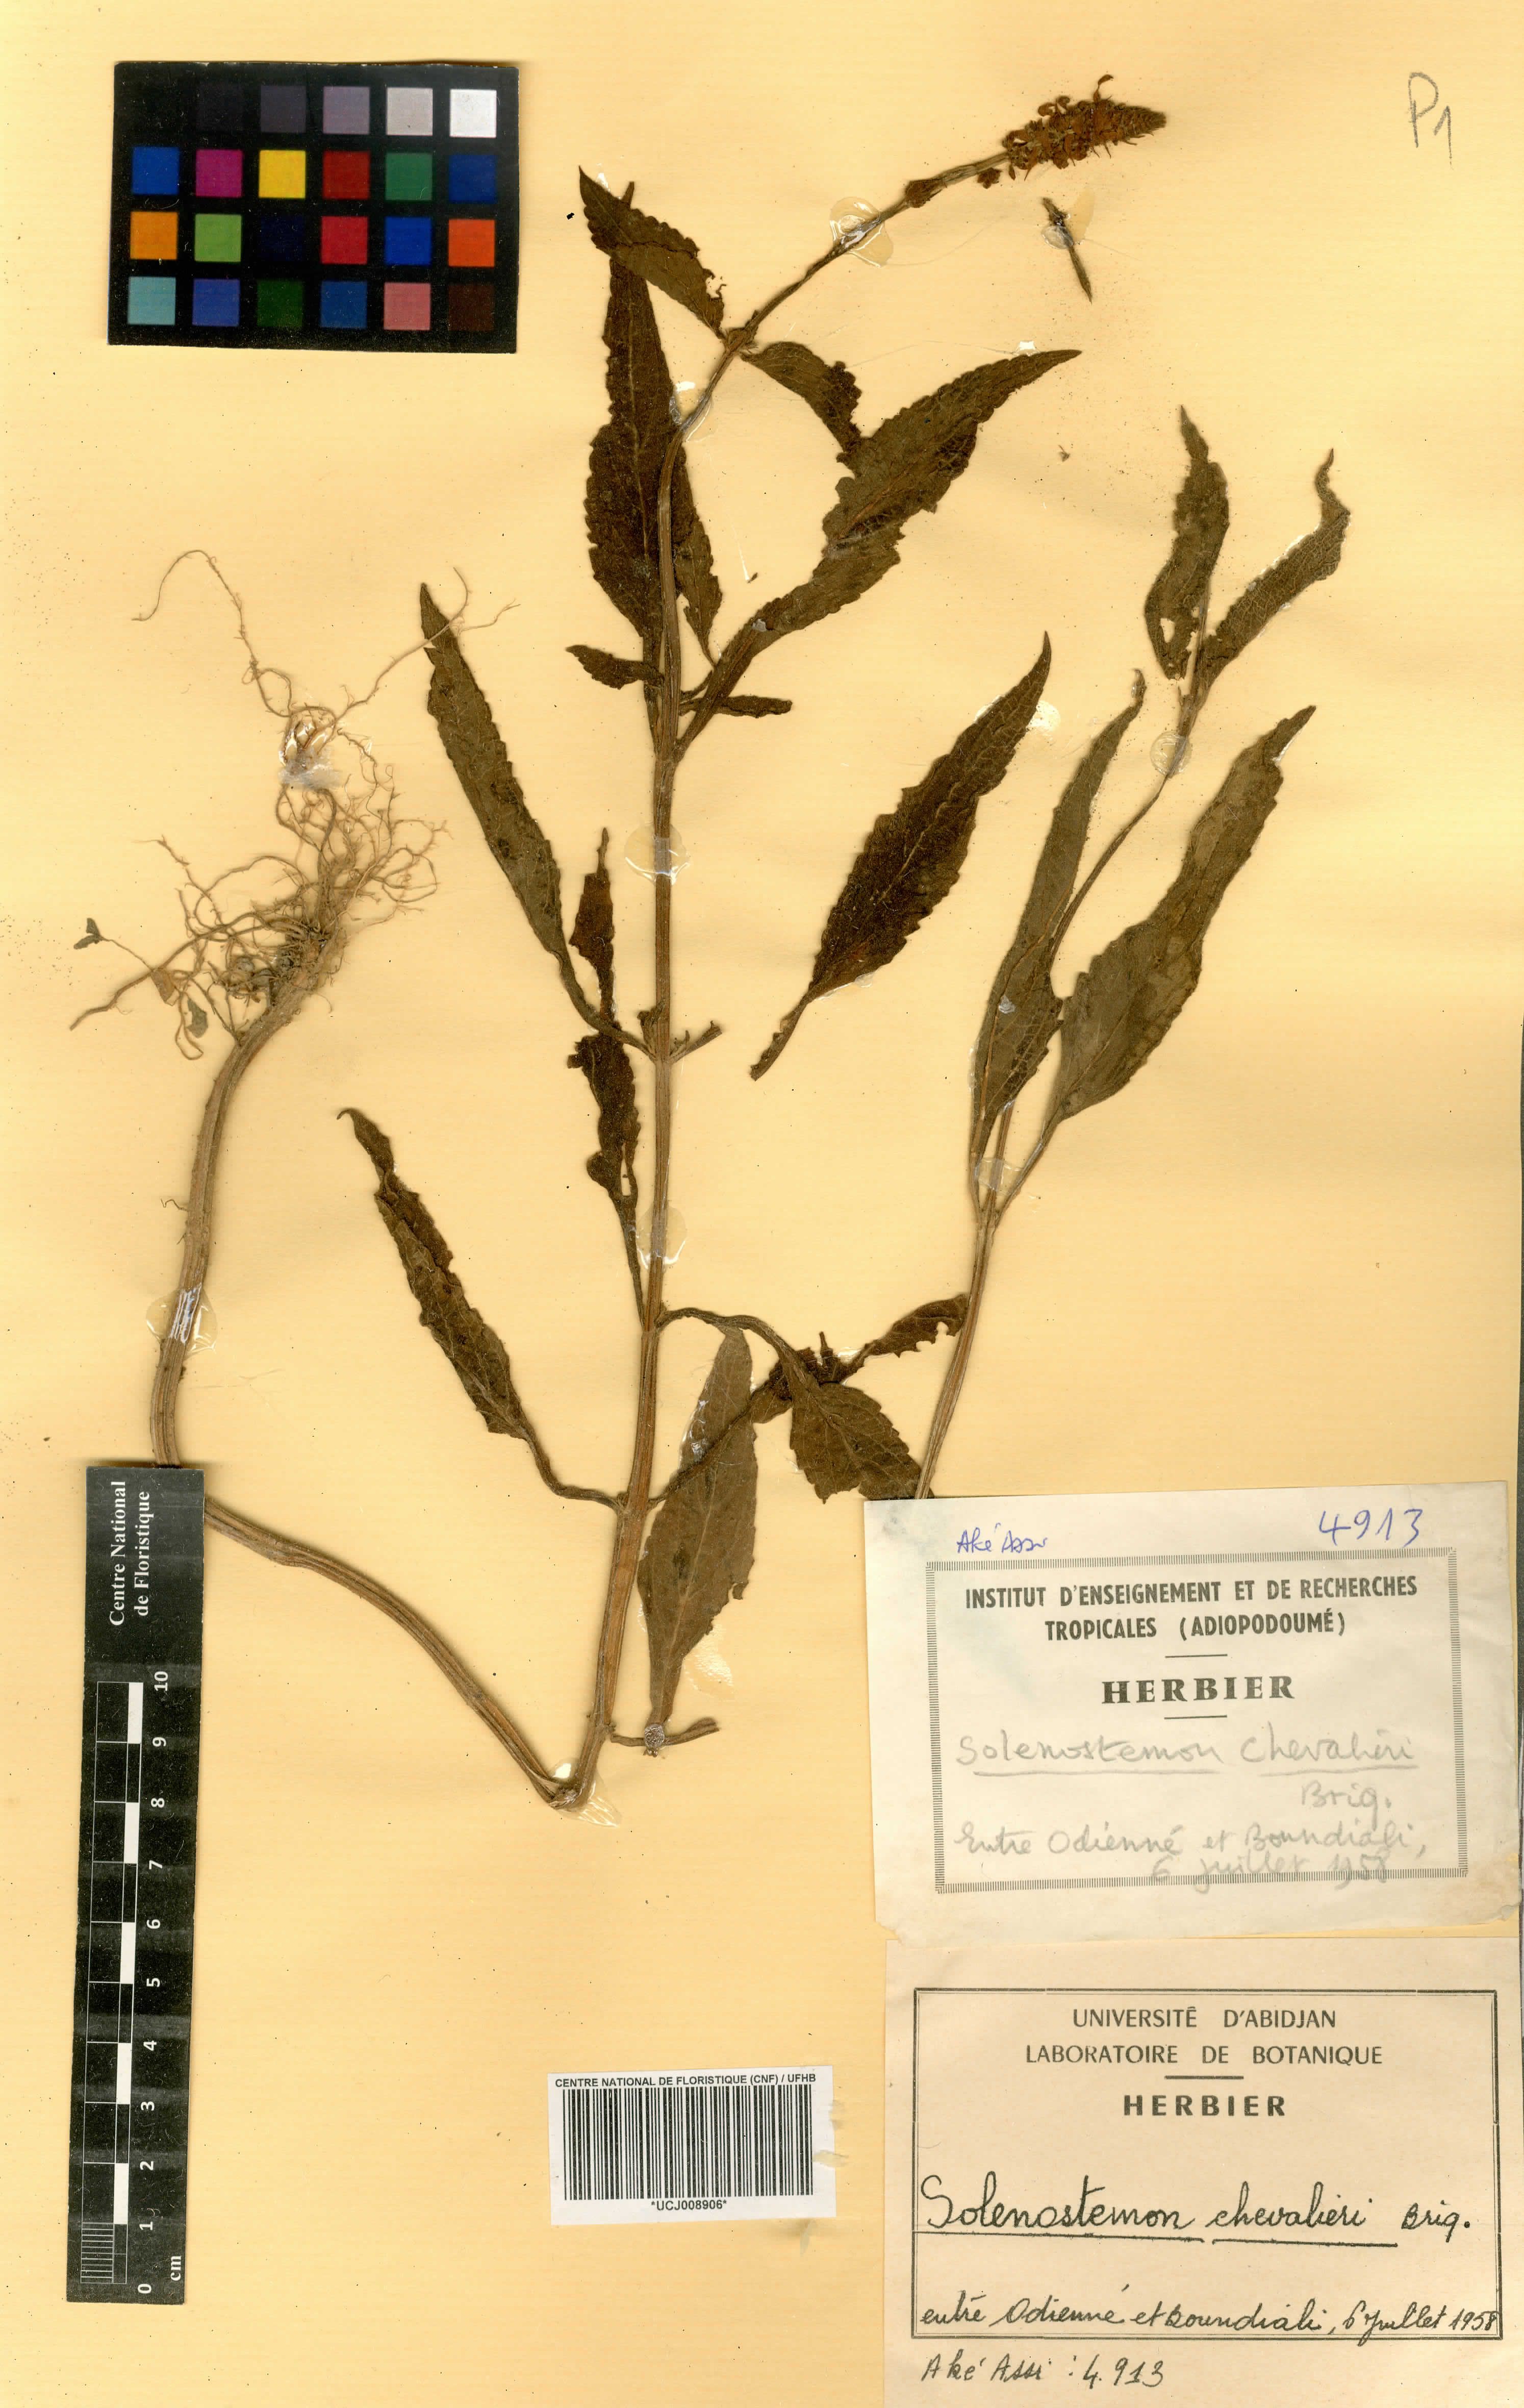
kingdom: Plantae
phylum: Tracheophyta
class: Magnoliopsida
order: Lamiales
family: Lamiaceae
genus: Coleus
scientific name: Coleus koulikoroensis
